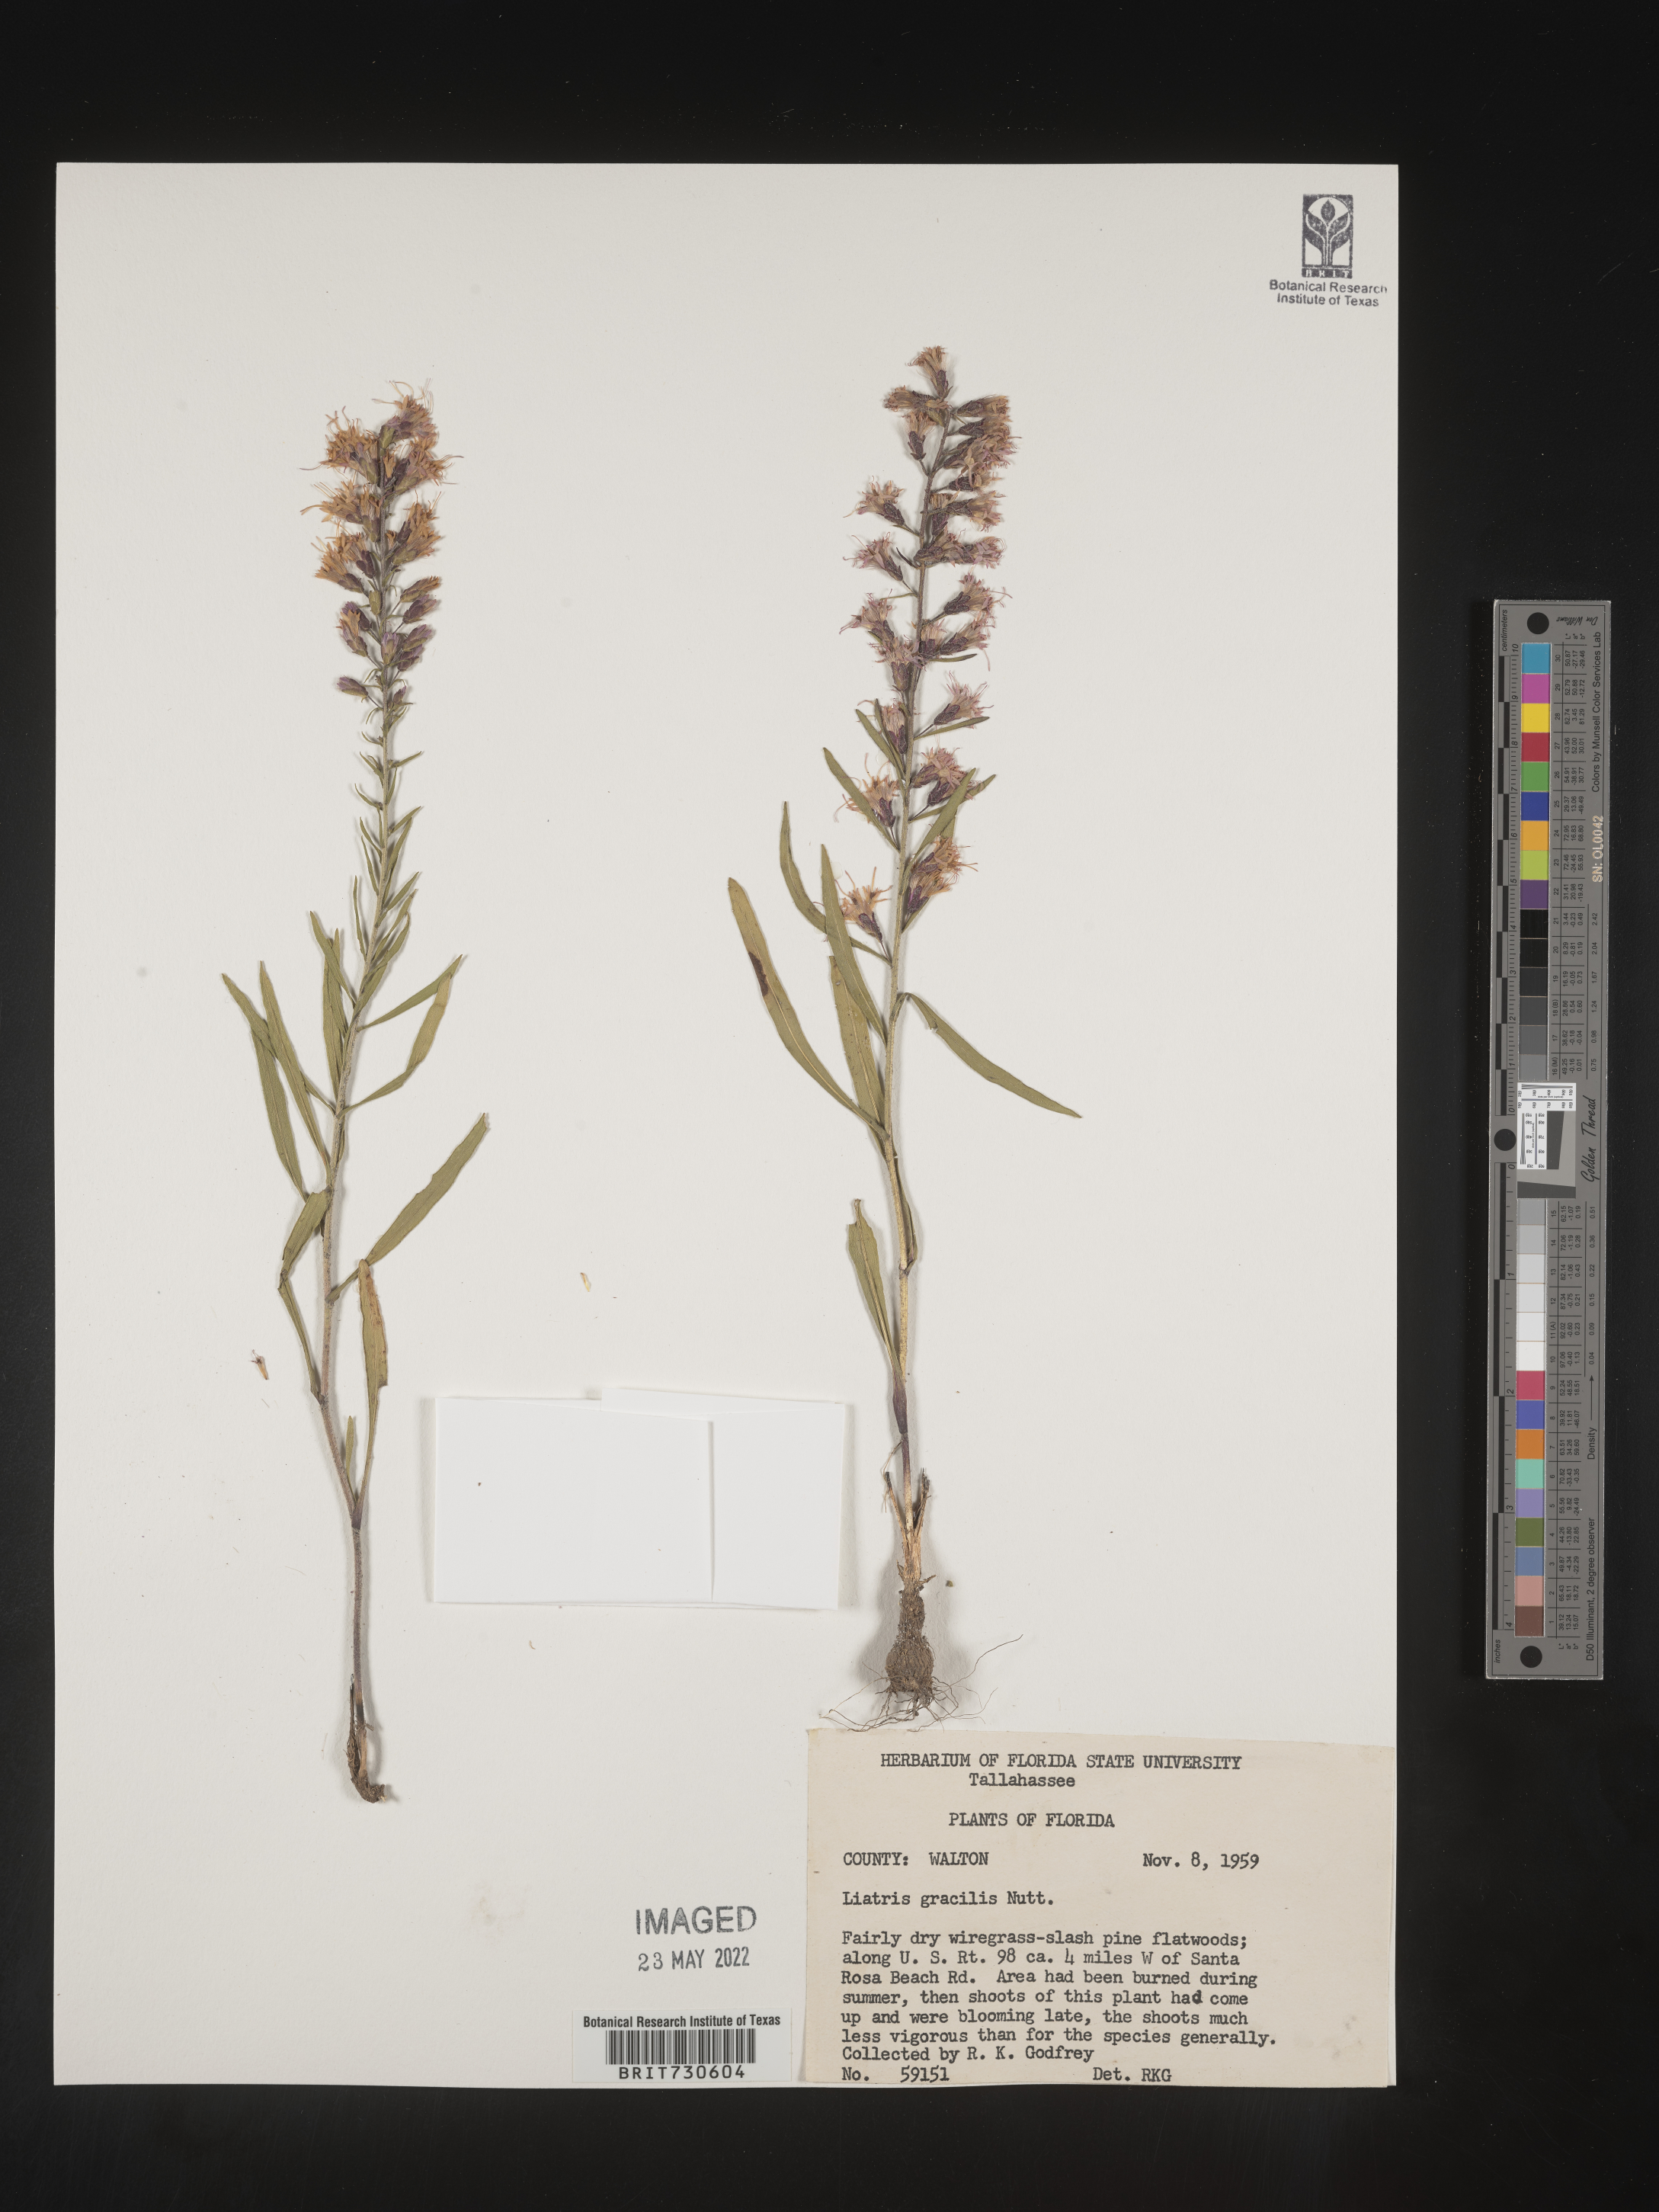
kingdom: Plantae
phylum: Tracheophyta
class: Magnoliopsida
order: Asterales
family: Asteraceae
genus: Liatris
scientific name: Liatris gracilis
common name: Slender gayfeather
